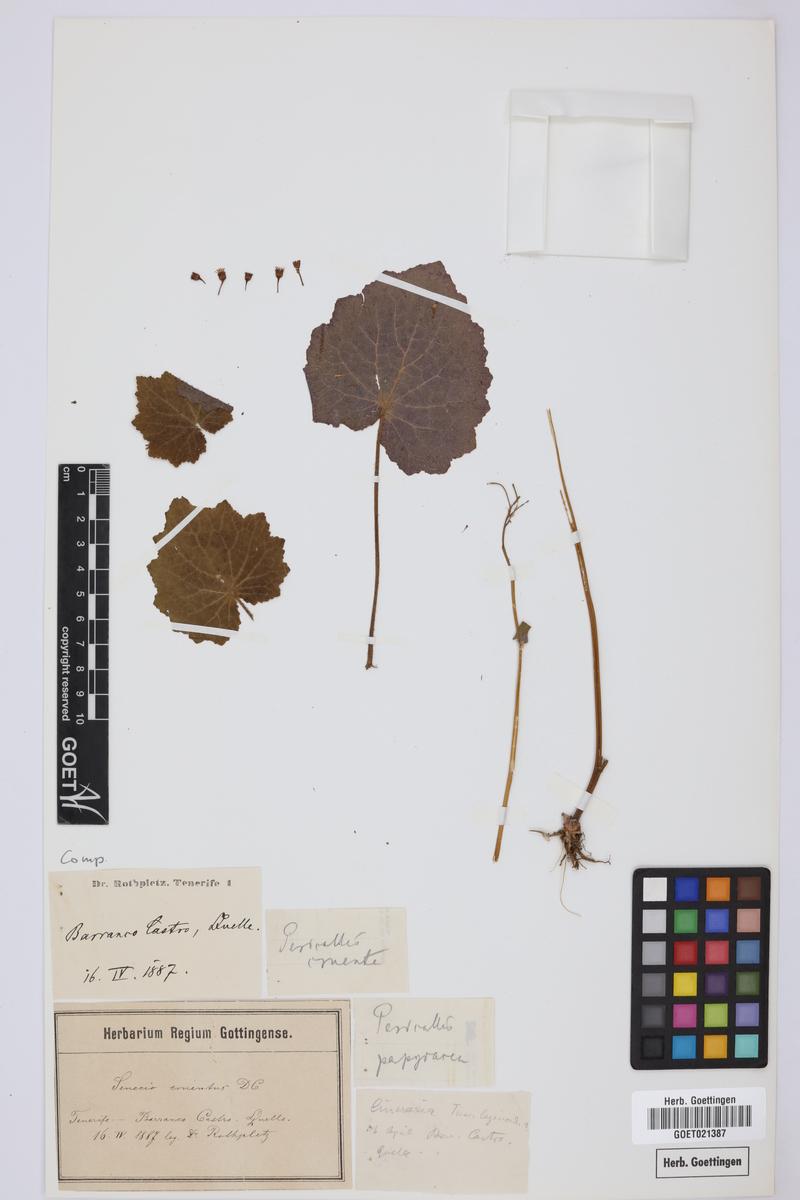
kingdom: Plantae
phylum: Tracheophyta
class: Magnoliopsida
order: Asterales
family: Asteraceae
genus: Pericallis
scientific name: Pericallis cruenta
